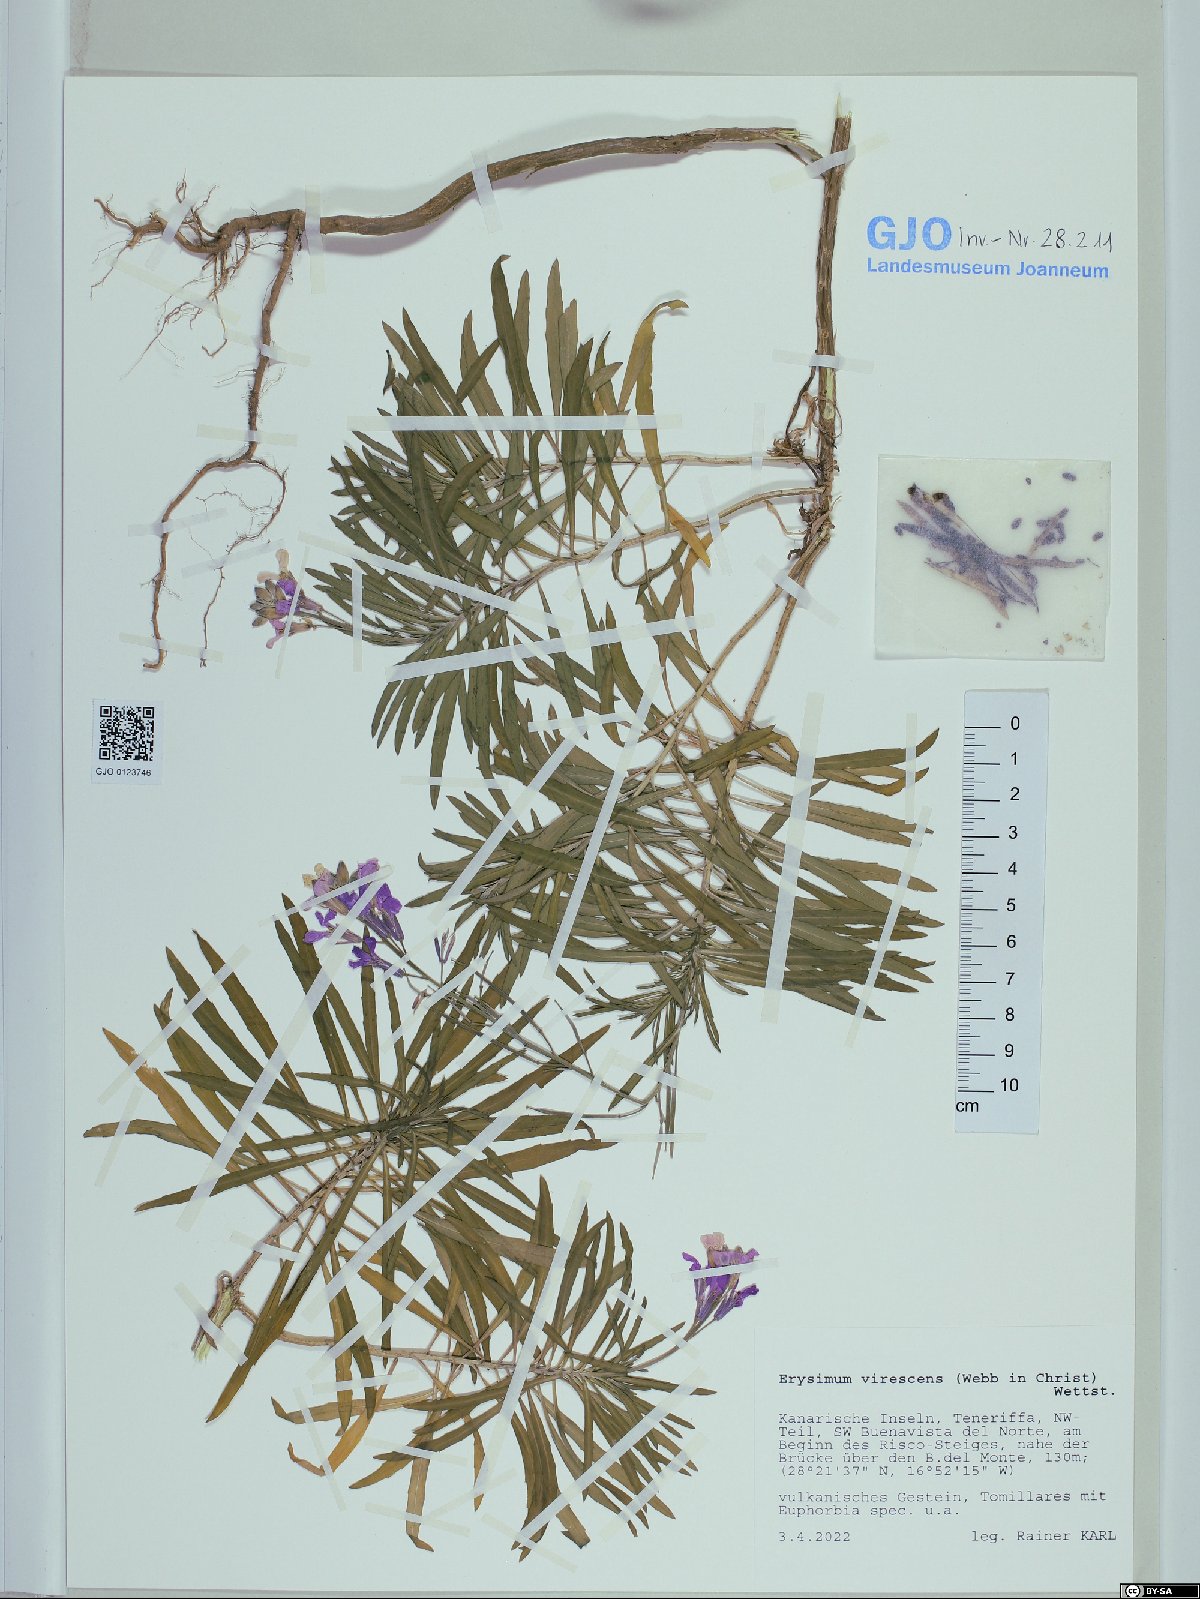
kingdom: Plantae
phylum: Tracheophyta
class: Magnoliopsida
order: Brassicales
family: Brassicaceae
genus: Erysimum
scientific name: Erysimum bicolor
